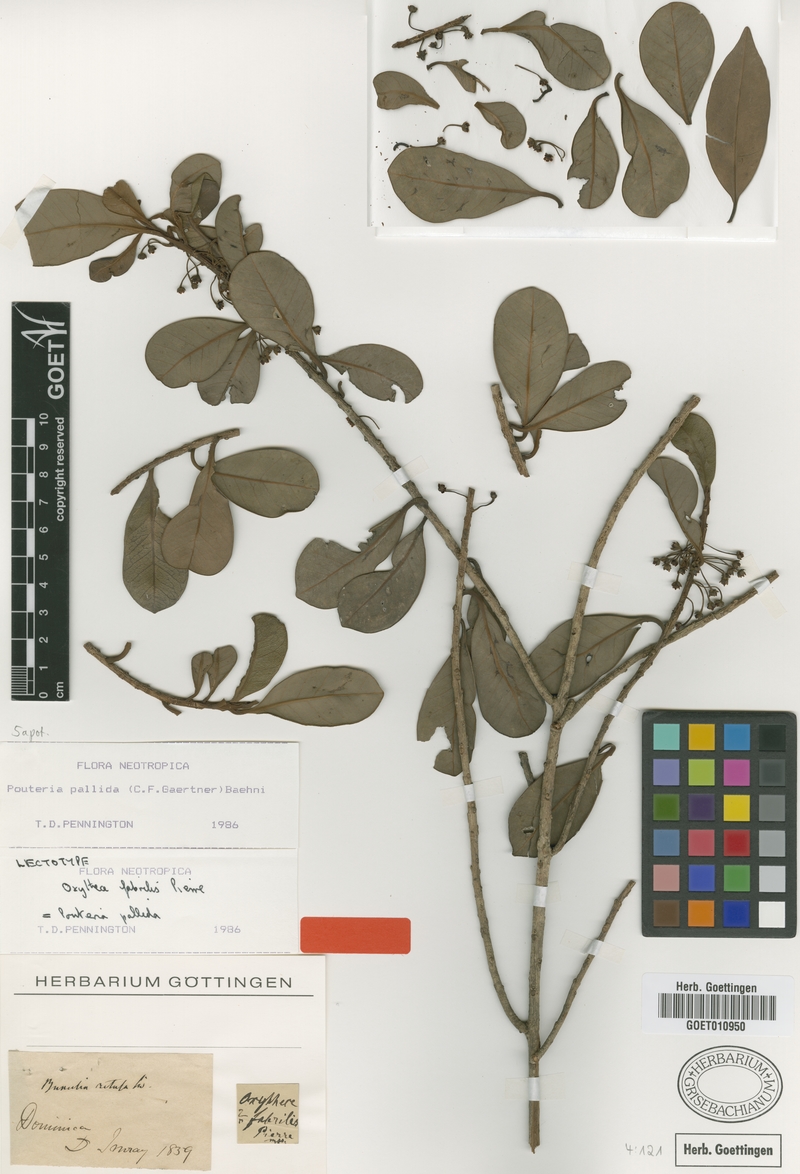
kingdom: Plantae
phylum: Tracheophyta
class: Magnoliopsida
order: Ericales
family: Sapotaceae
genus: Pouteria
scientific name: Pouteria pallida
